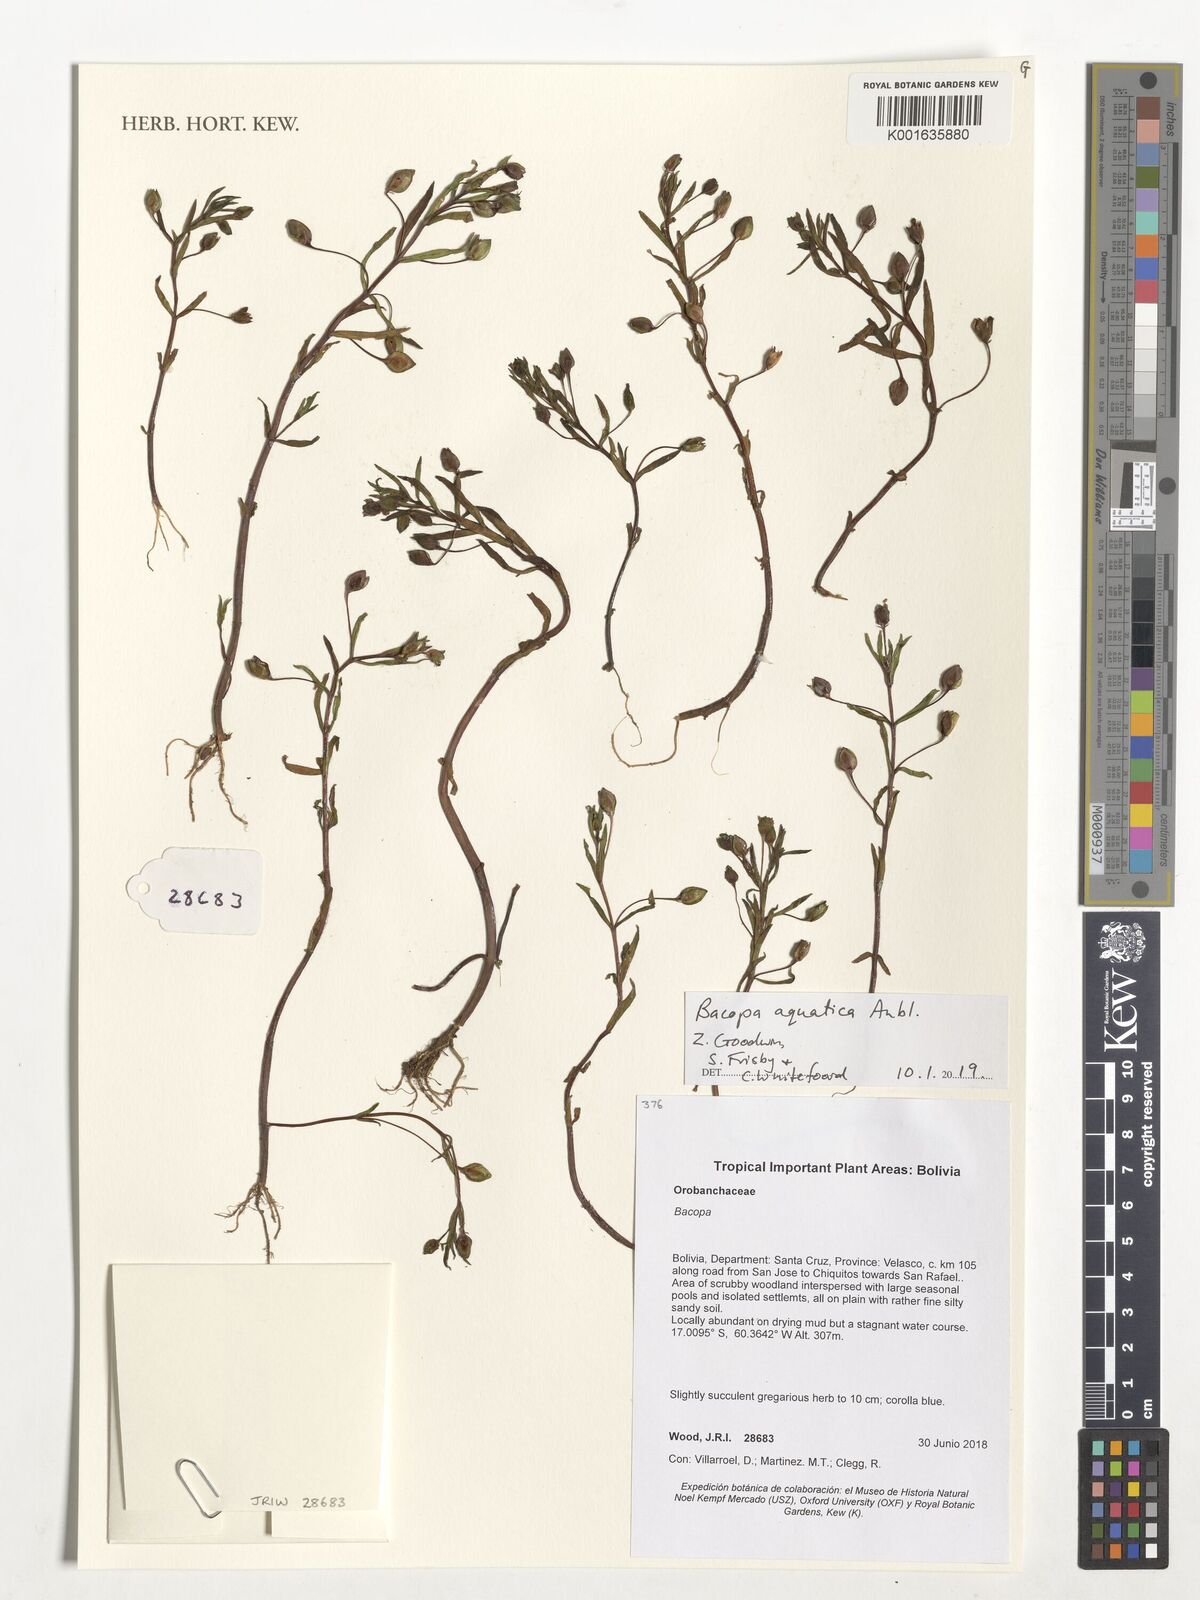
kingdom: Plantae
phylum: Tracheophyta
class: Magnoliopsida
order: Lamiales
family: Plantaginaceae
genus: Bacopa
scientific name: Bacopa aquatica
